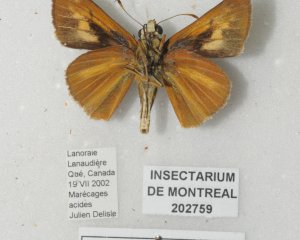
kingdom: Animalia
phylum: Arthropoda
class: Insecta
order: Lepidoptera
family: Hesperiidae
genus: Euphyes
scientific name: Euphyes dion
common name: Dion Skipper
